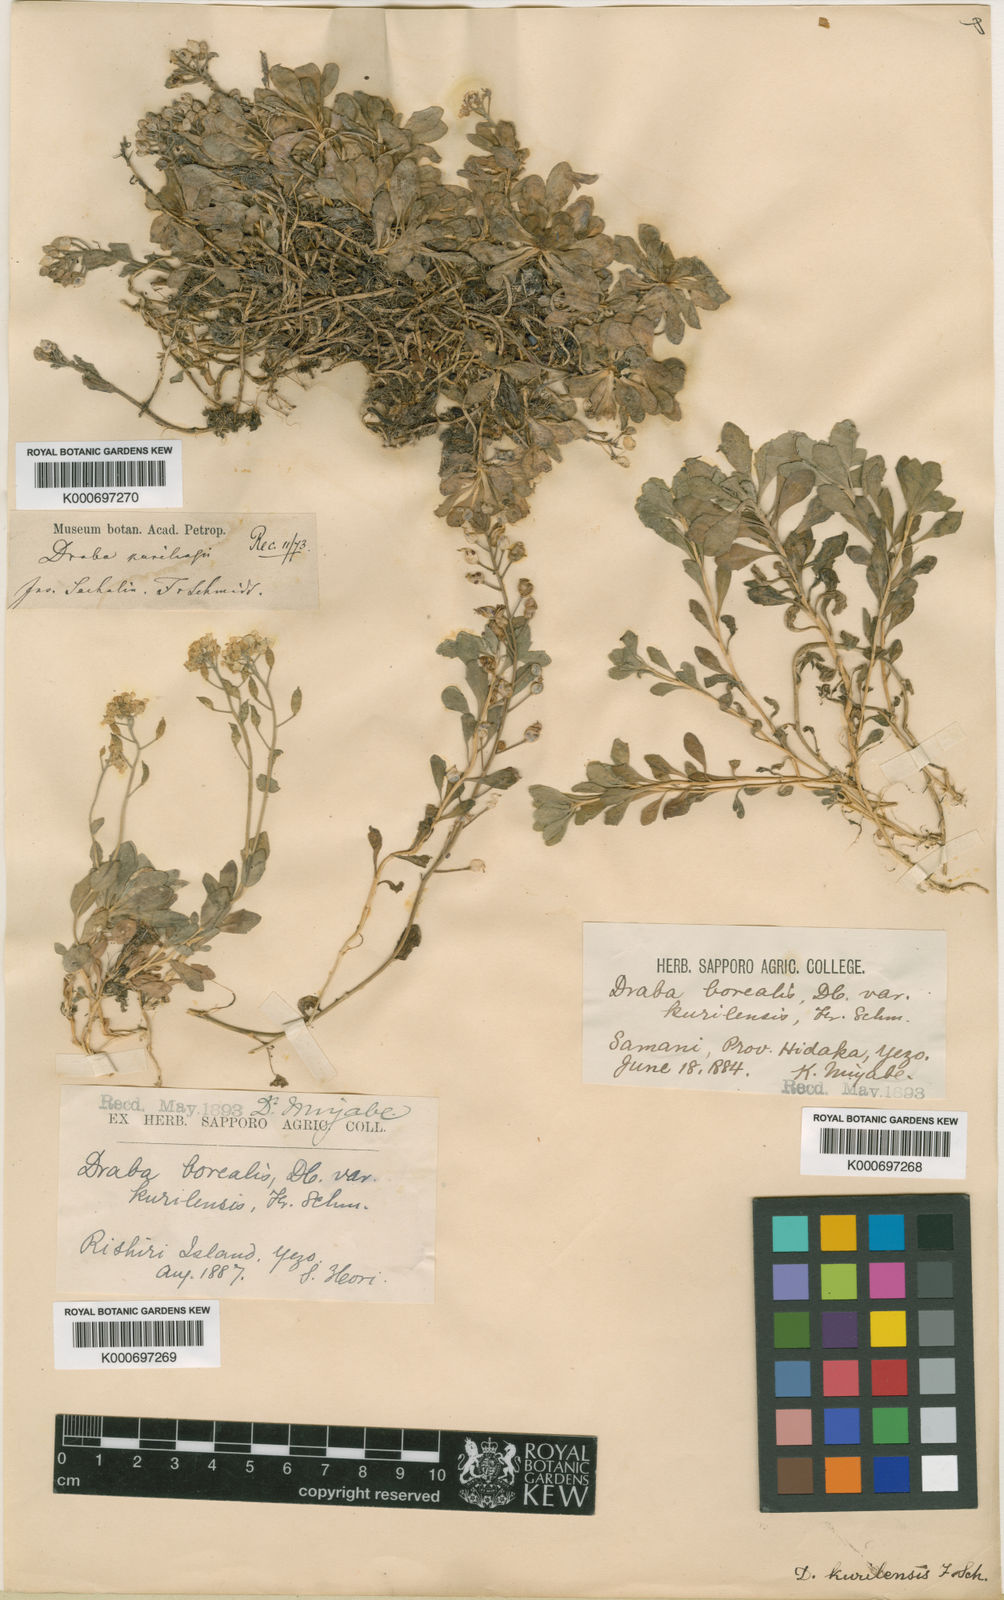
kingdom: Plantae
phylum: Tracheophyta
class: Magnoliopsida
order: Brassicales
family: Brassicaceae
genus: Draba
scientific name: Draba
